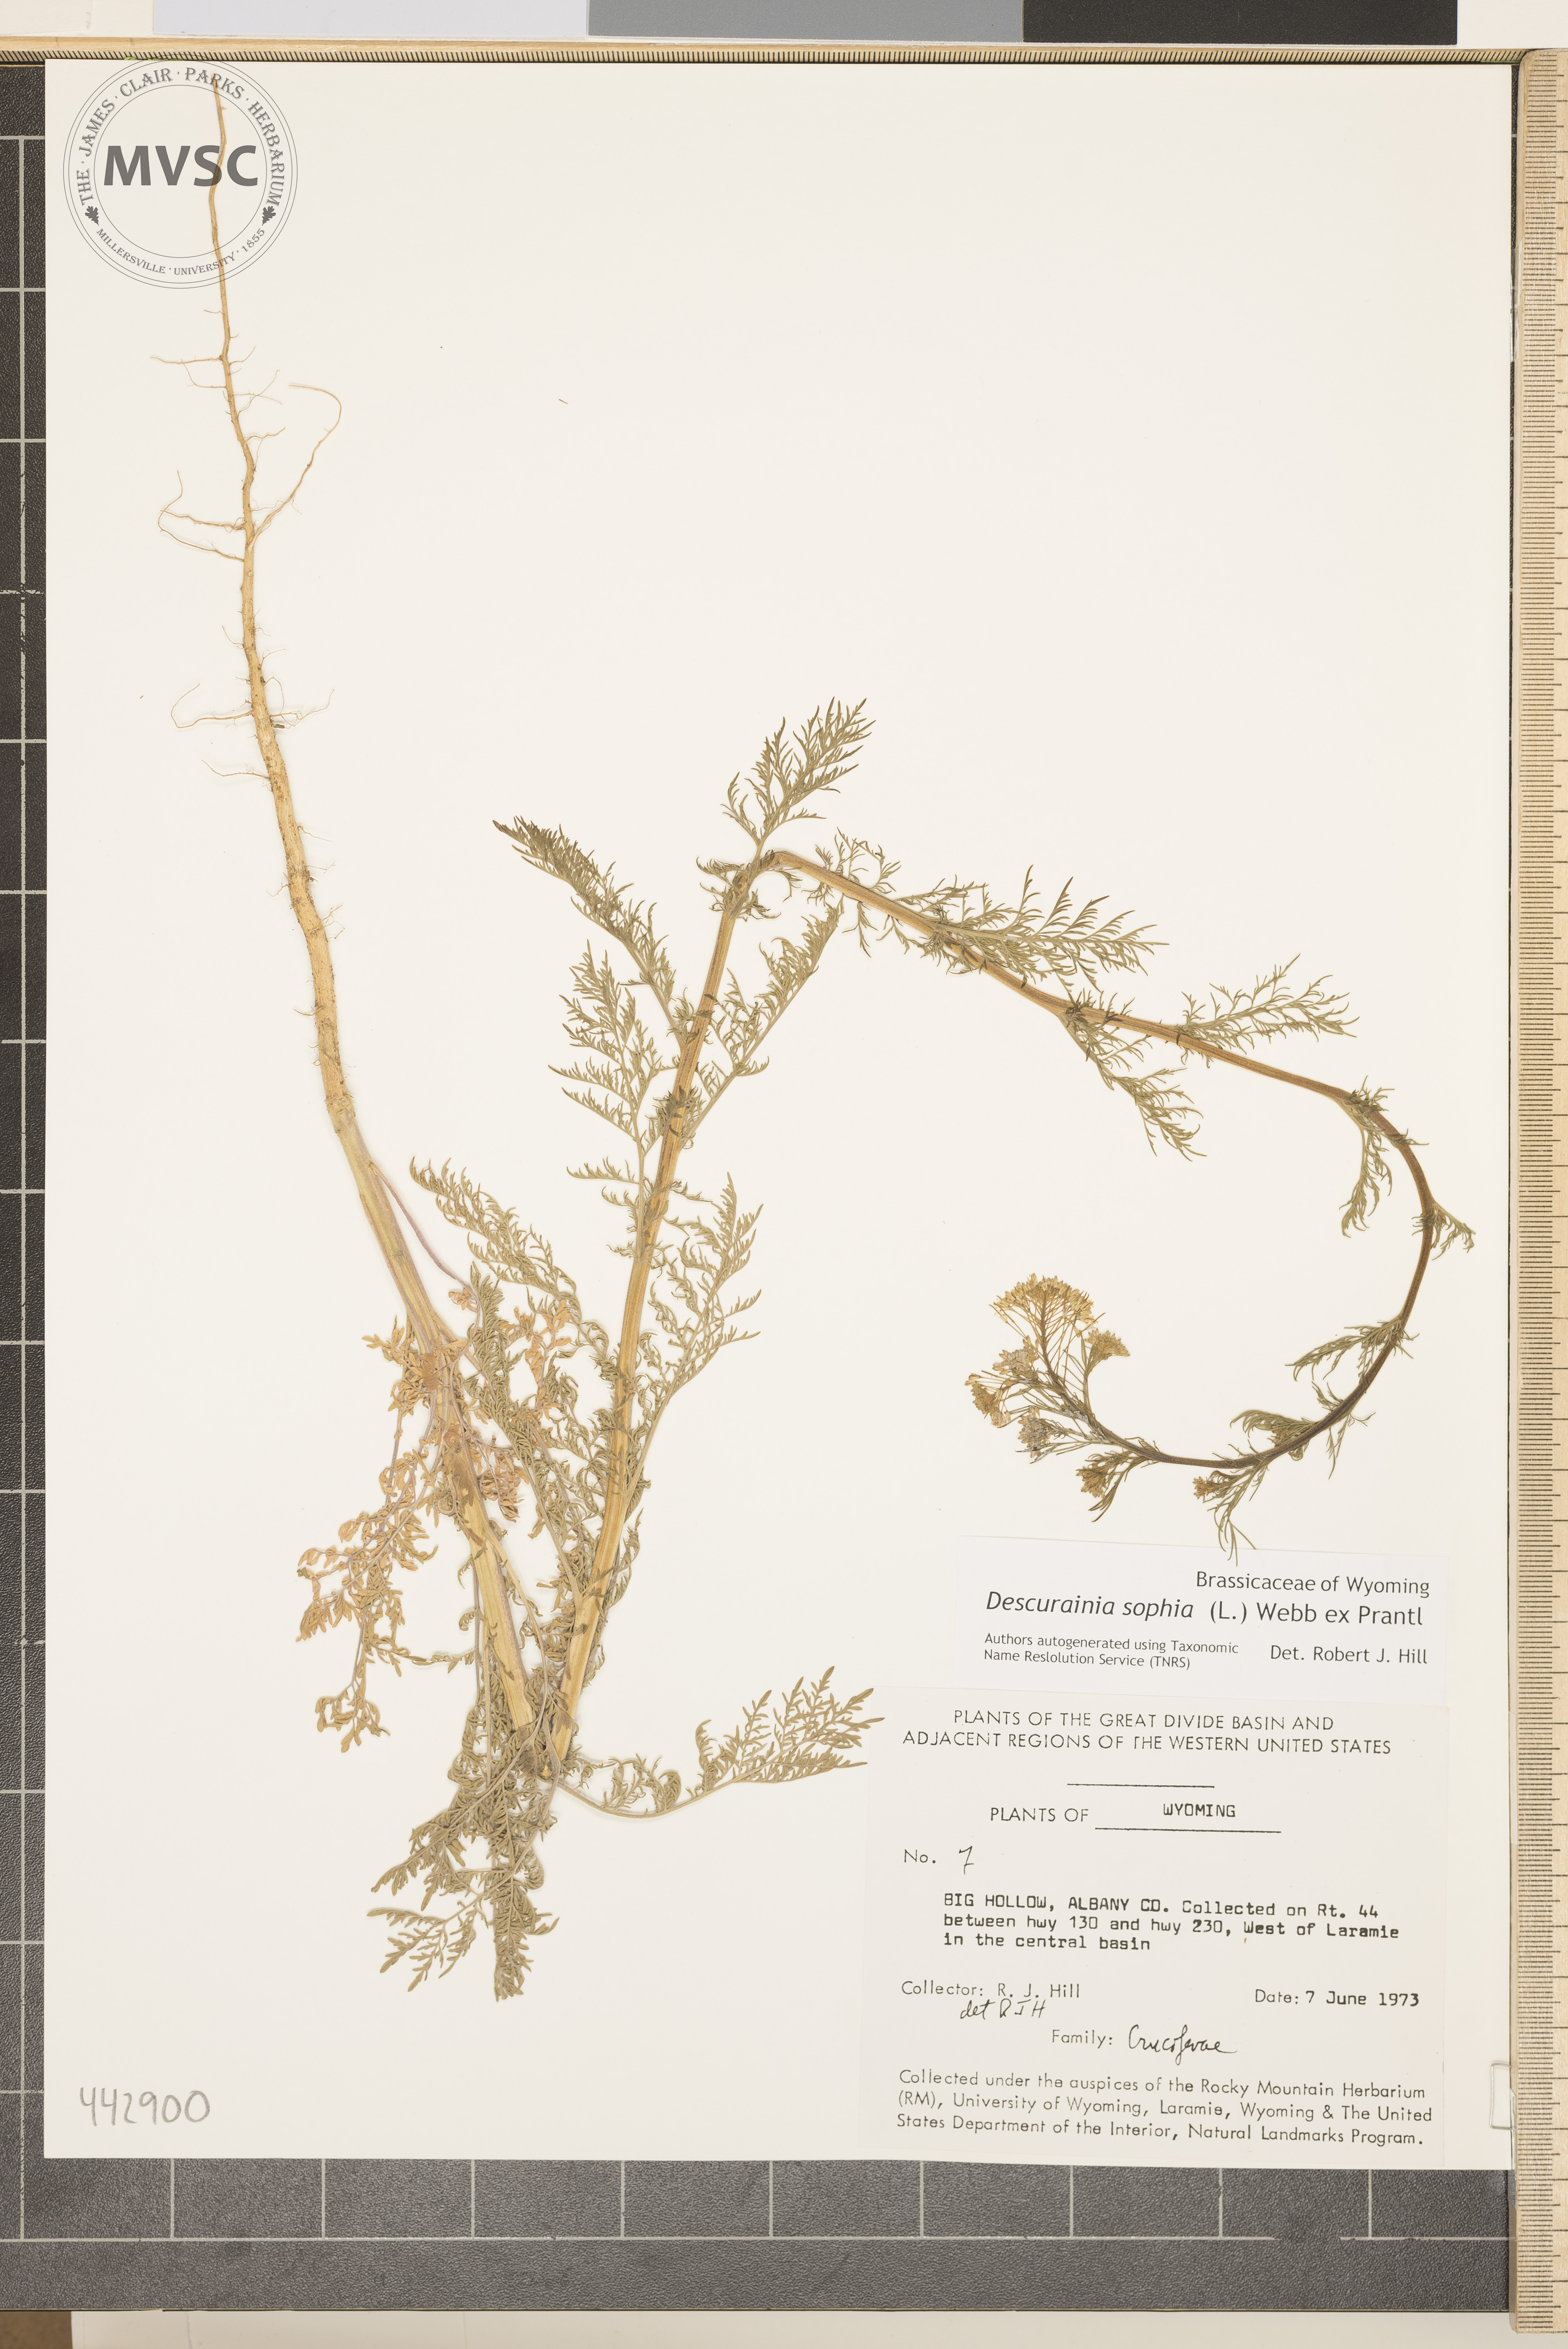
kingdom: Plantae
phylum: Tracheophyta
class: Magnoliopsida
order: Brassicales
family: Brassicaceae
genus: Descurainia
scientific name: Descurainia sophia
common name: Flixweed
